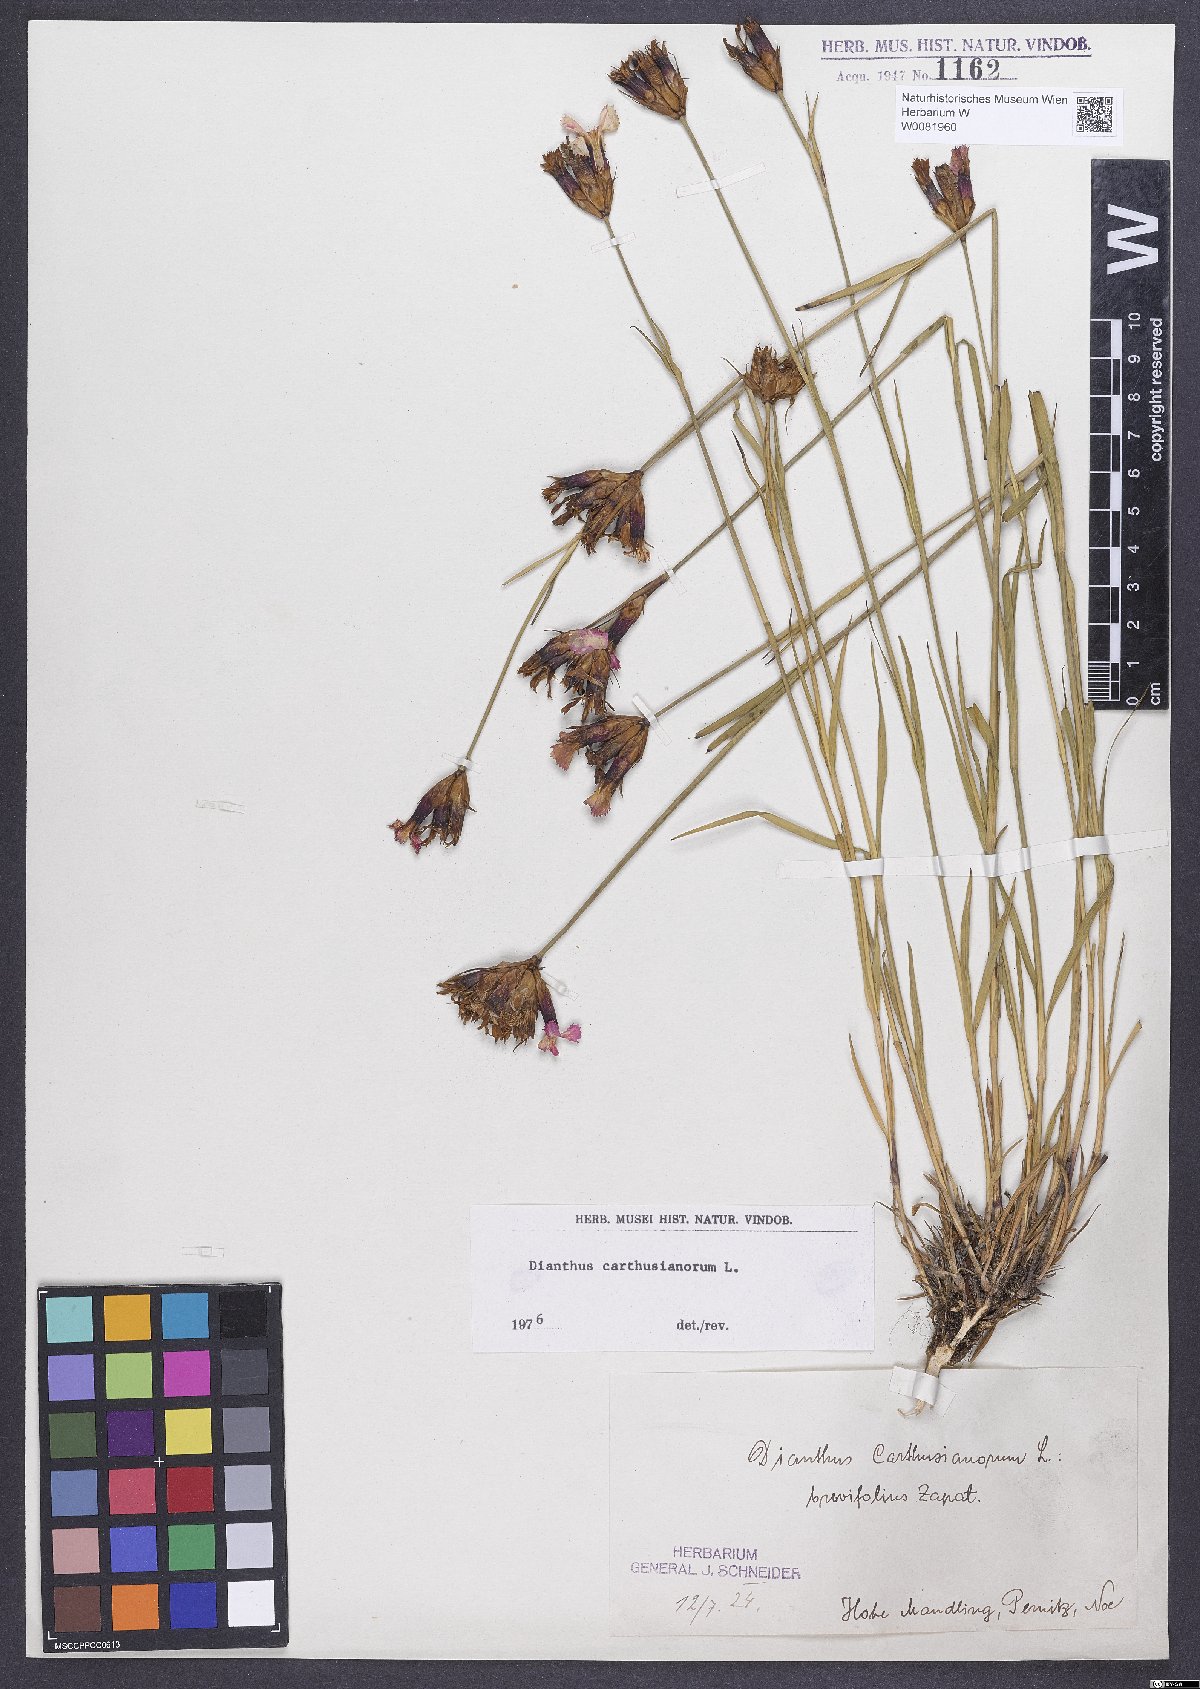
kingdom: Plantae
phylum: Tracheophyta
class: Magnoliopsida
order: Caryophyllales
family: Caryophyllaceae
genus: Dianthus
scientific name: Dianthus carthusianorum
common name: Carthusian pink
